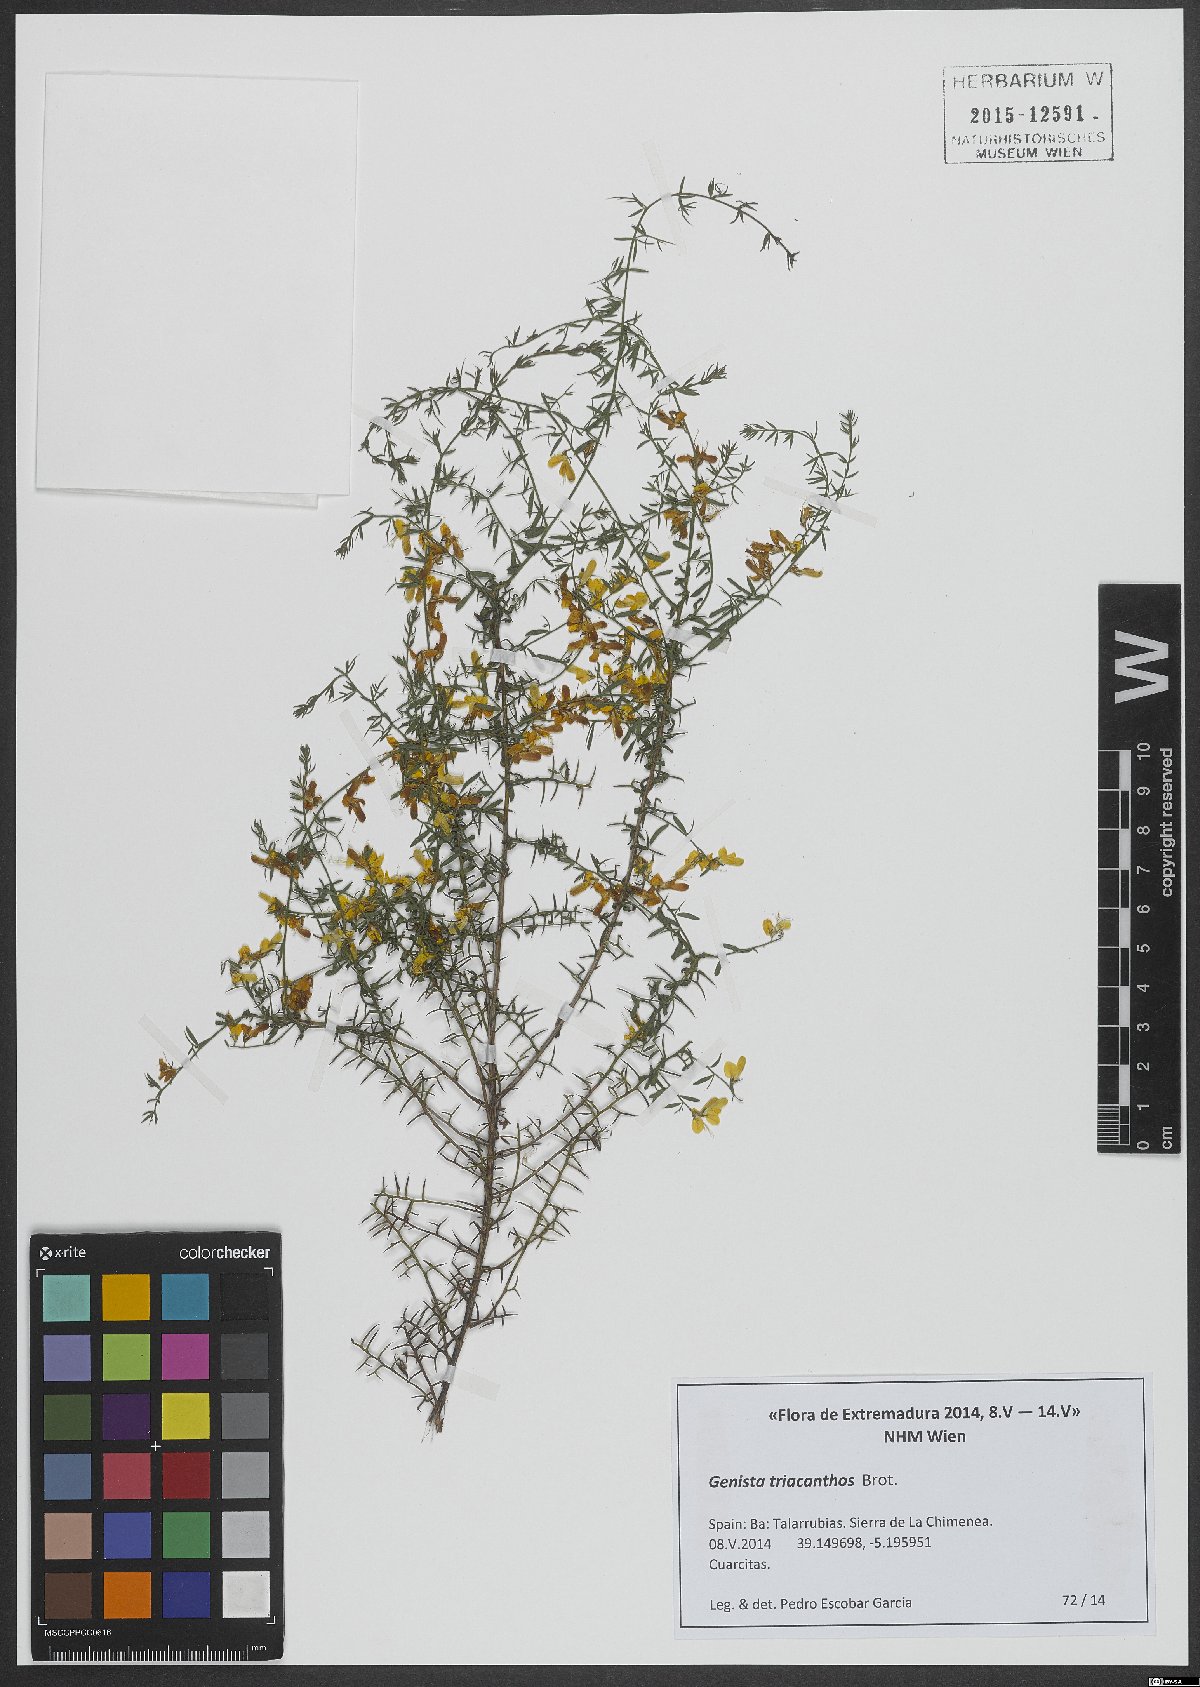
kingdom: Plantae
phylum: Tracheophyta
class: Magnoliopsida
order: Fabales
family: Fabaceae
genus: Genista
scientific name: Genista triacanthos
